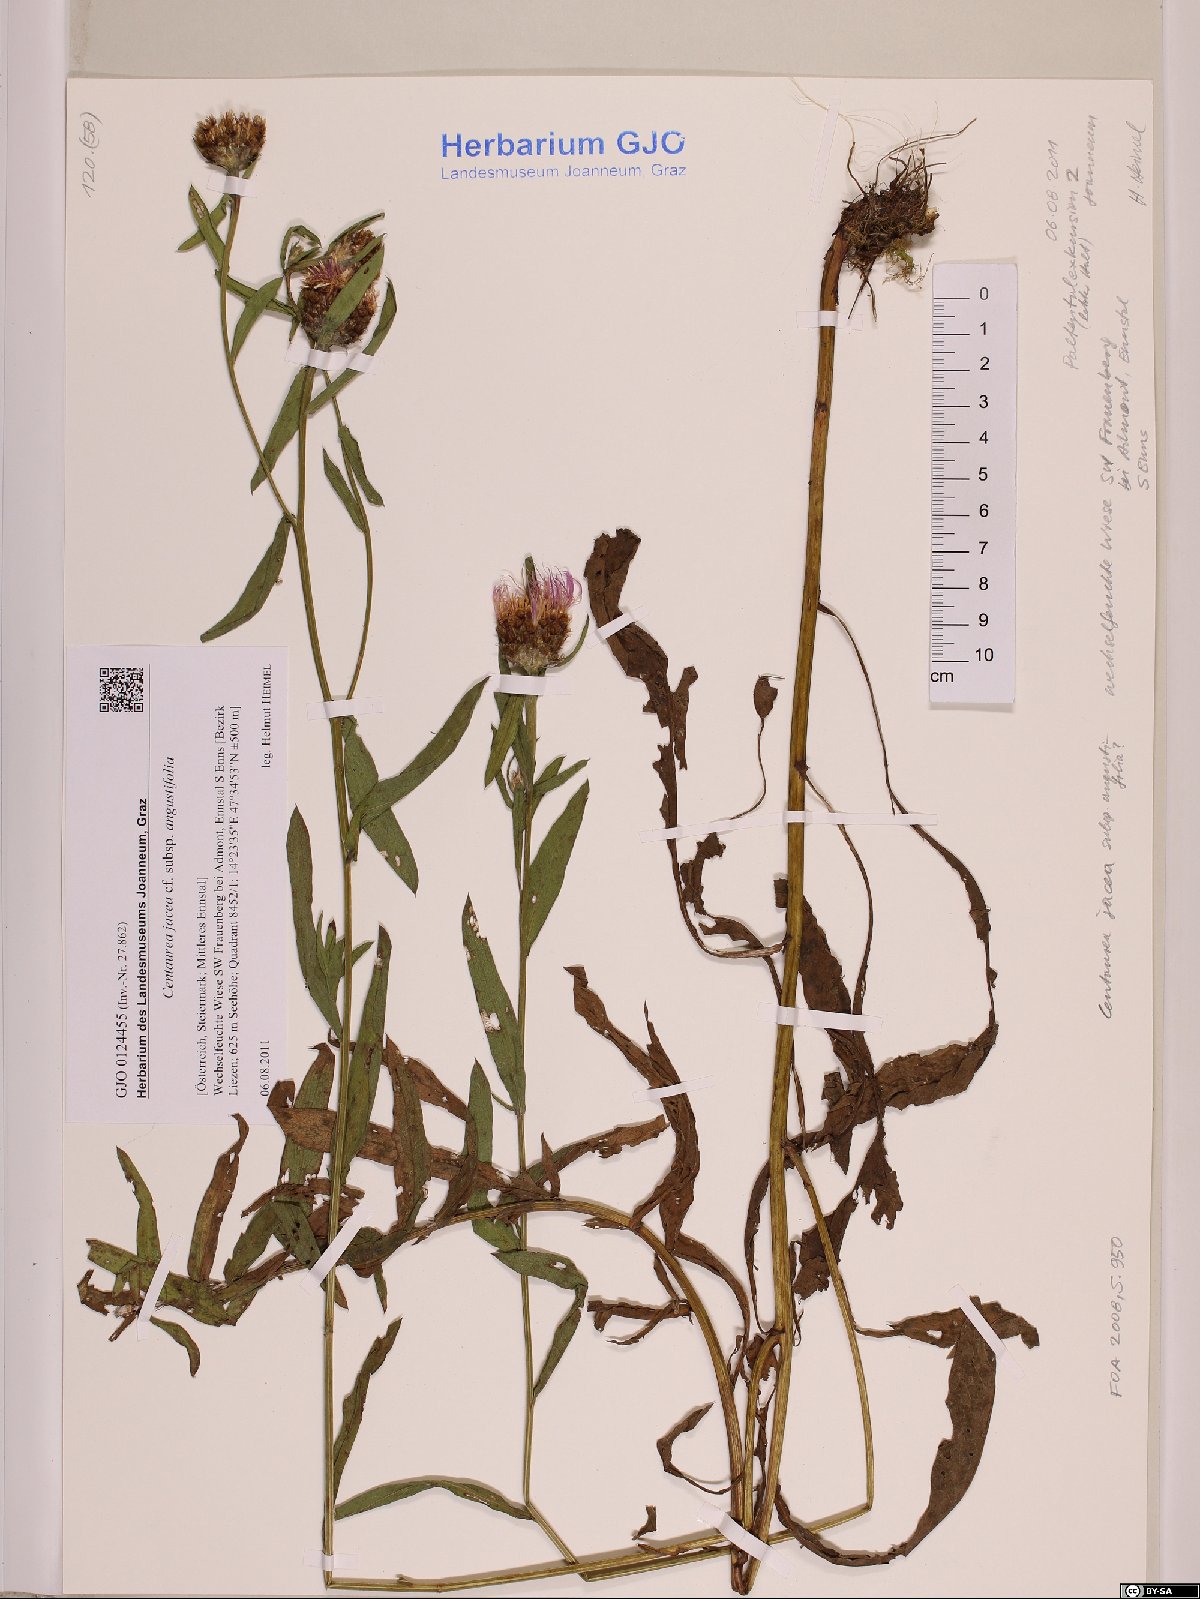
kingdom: Plantae
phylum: Tracheophyta
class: Magnoliopsida
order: Asterales
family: Asteraceae
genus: Centaurea
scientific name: Centaurea pannonica
